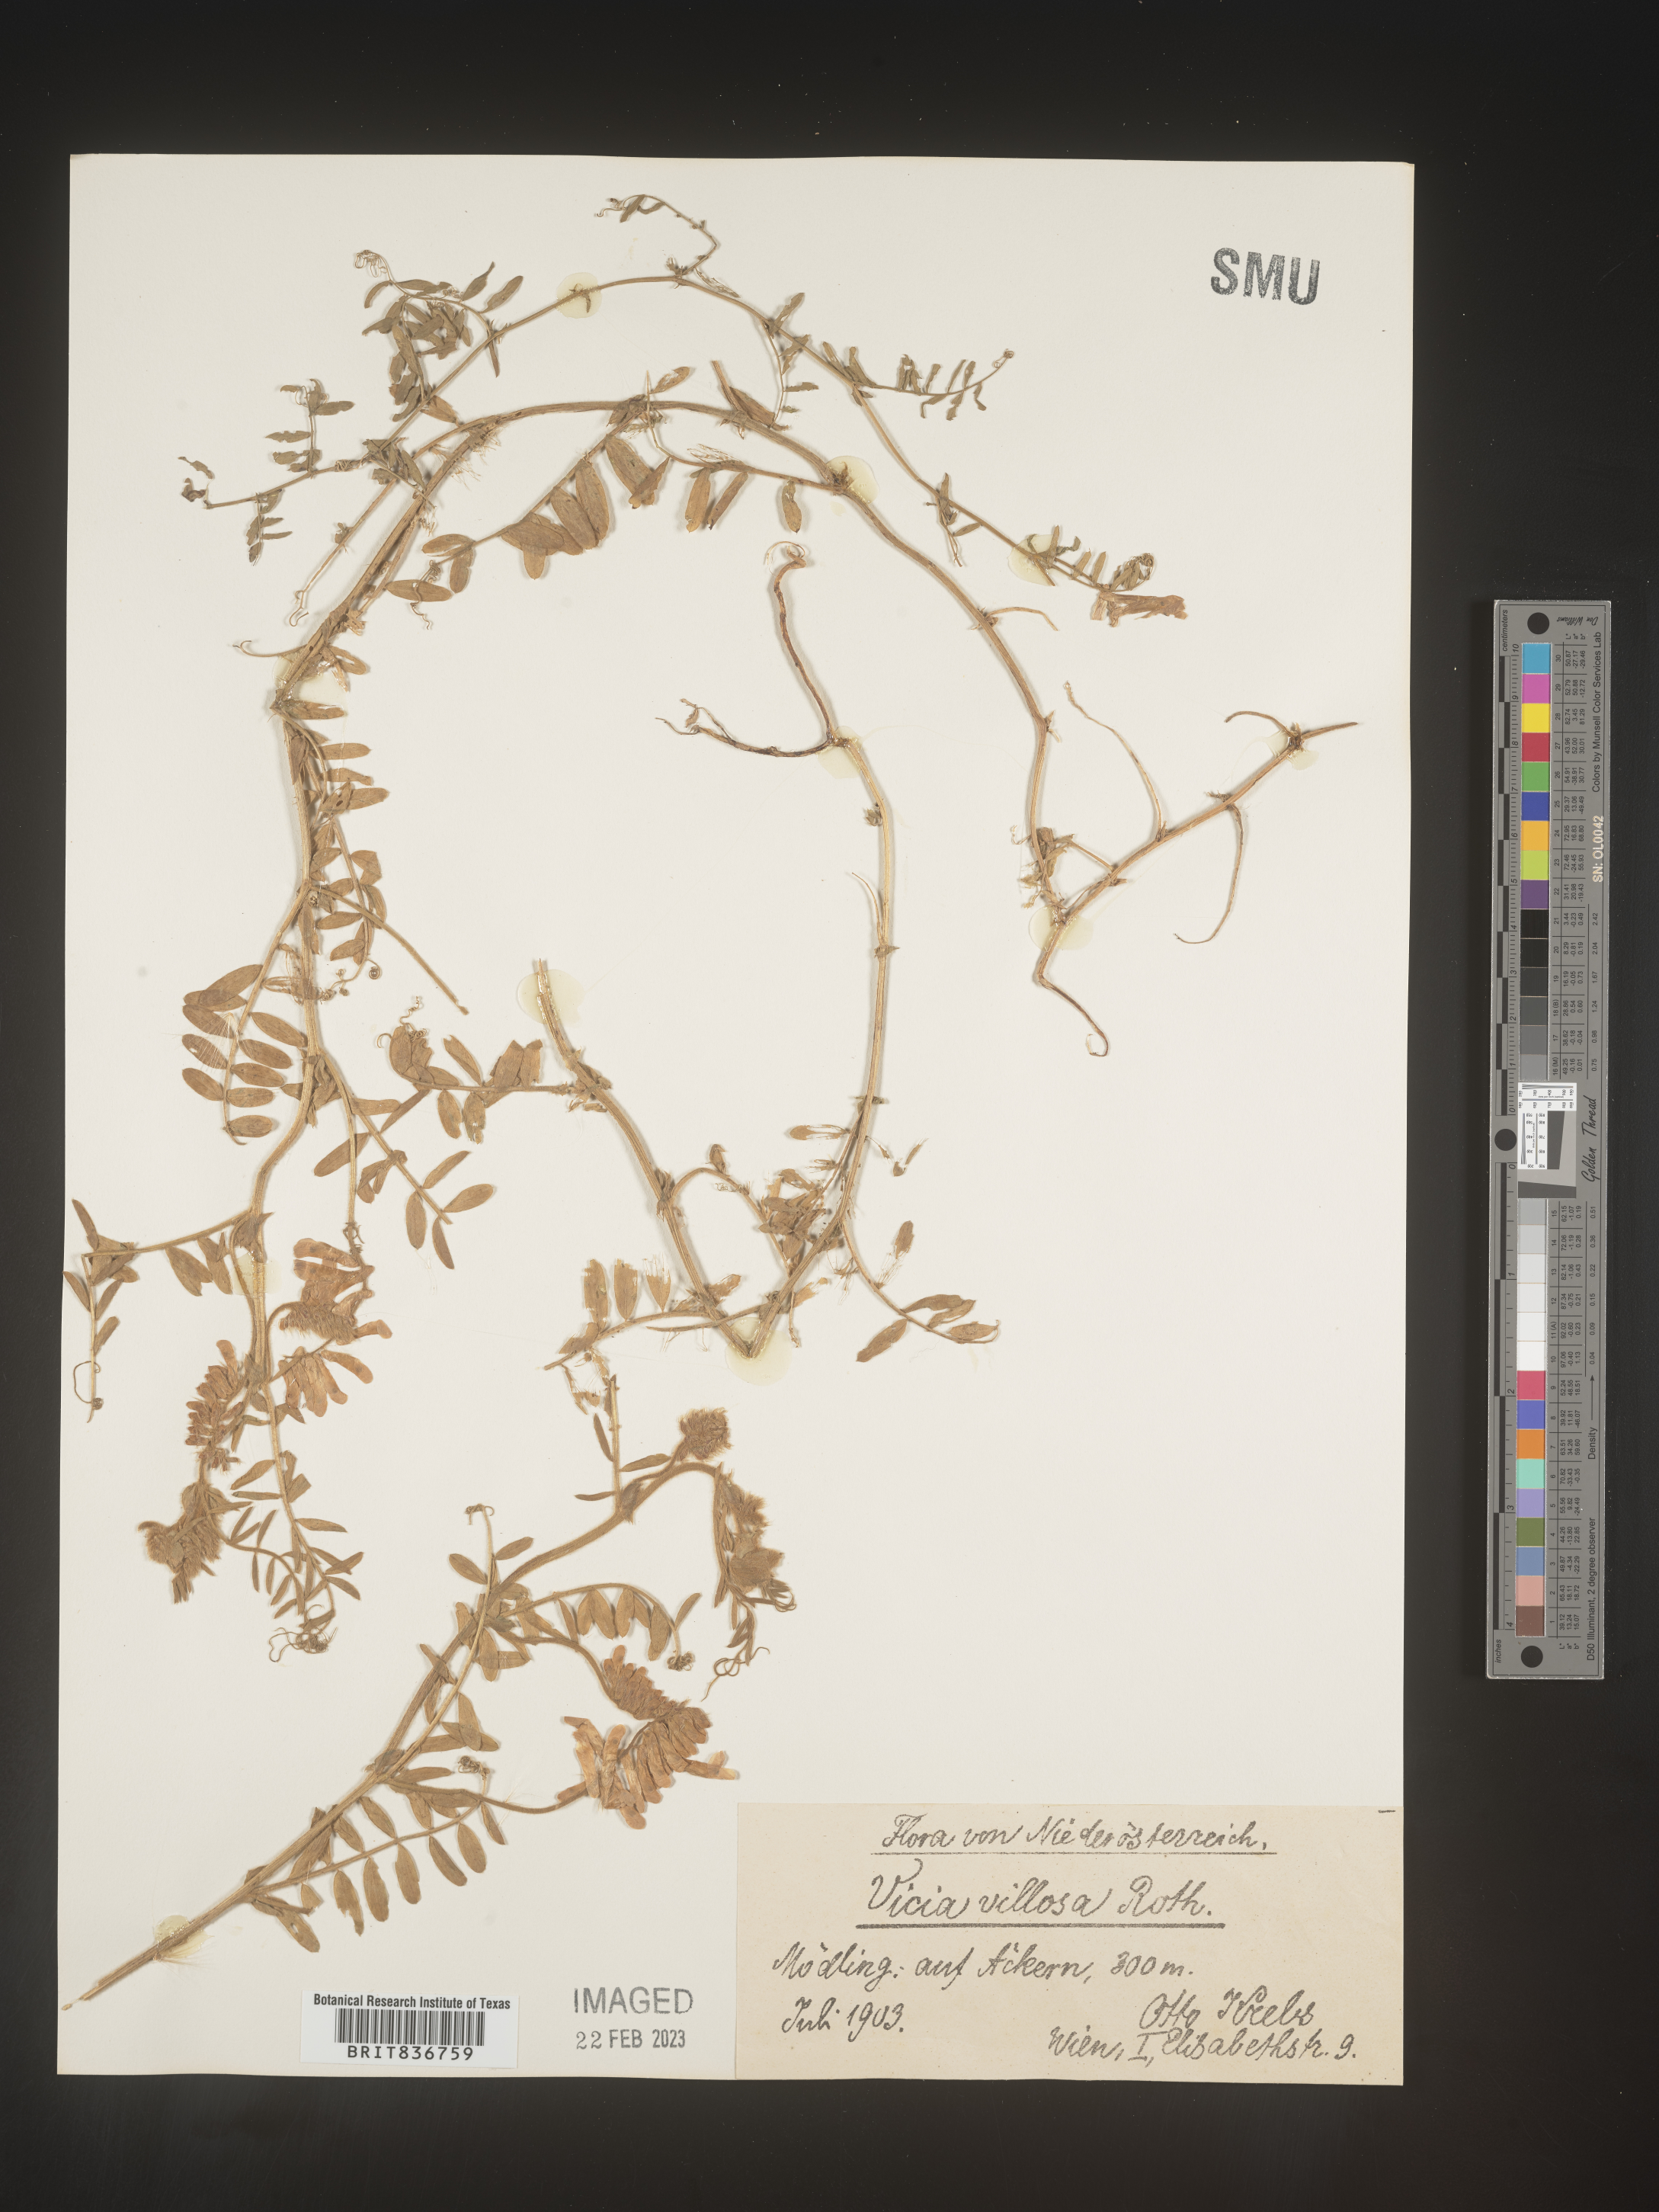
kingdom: Plantae
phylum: Tracheophyta
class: Magnoliopsida
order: Fabales
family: Fabaceae
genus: Vicia
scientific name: Vicia
